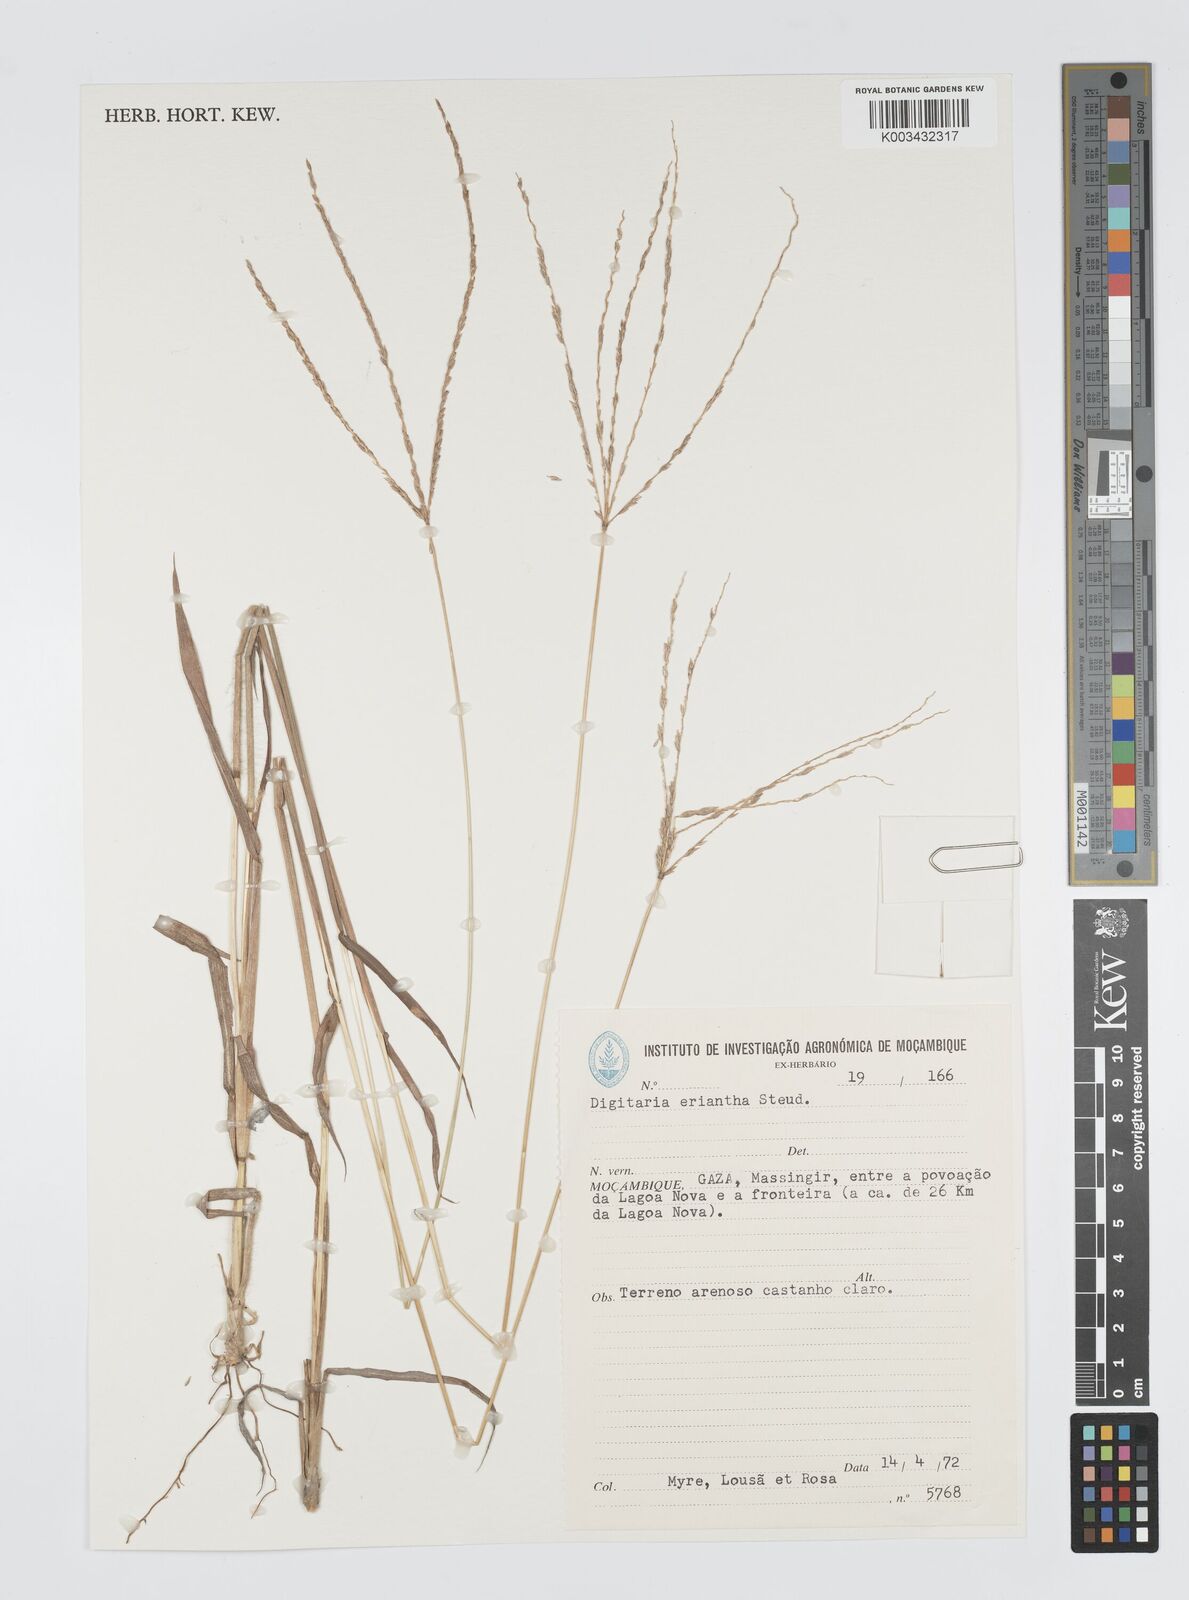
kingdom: Plantae
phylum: Tracheophyta
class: Liliopsida
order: Poales
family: Poaceae
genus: Digitaria
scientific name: Digitaria eriantha
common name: Digitgrass
